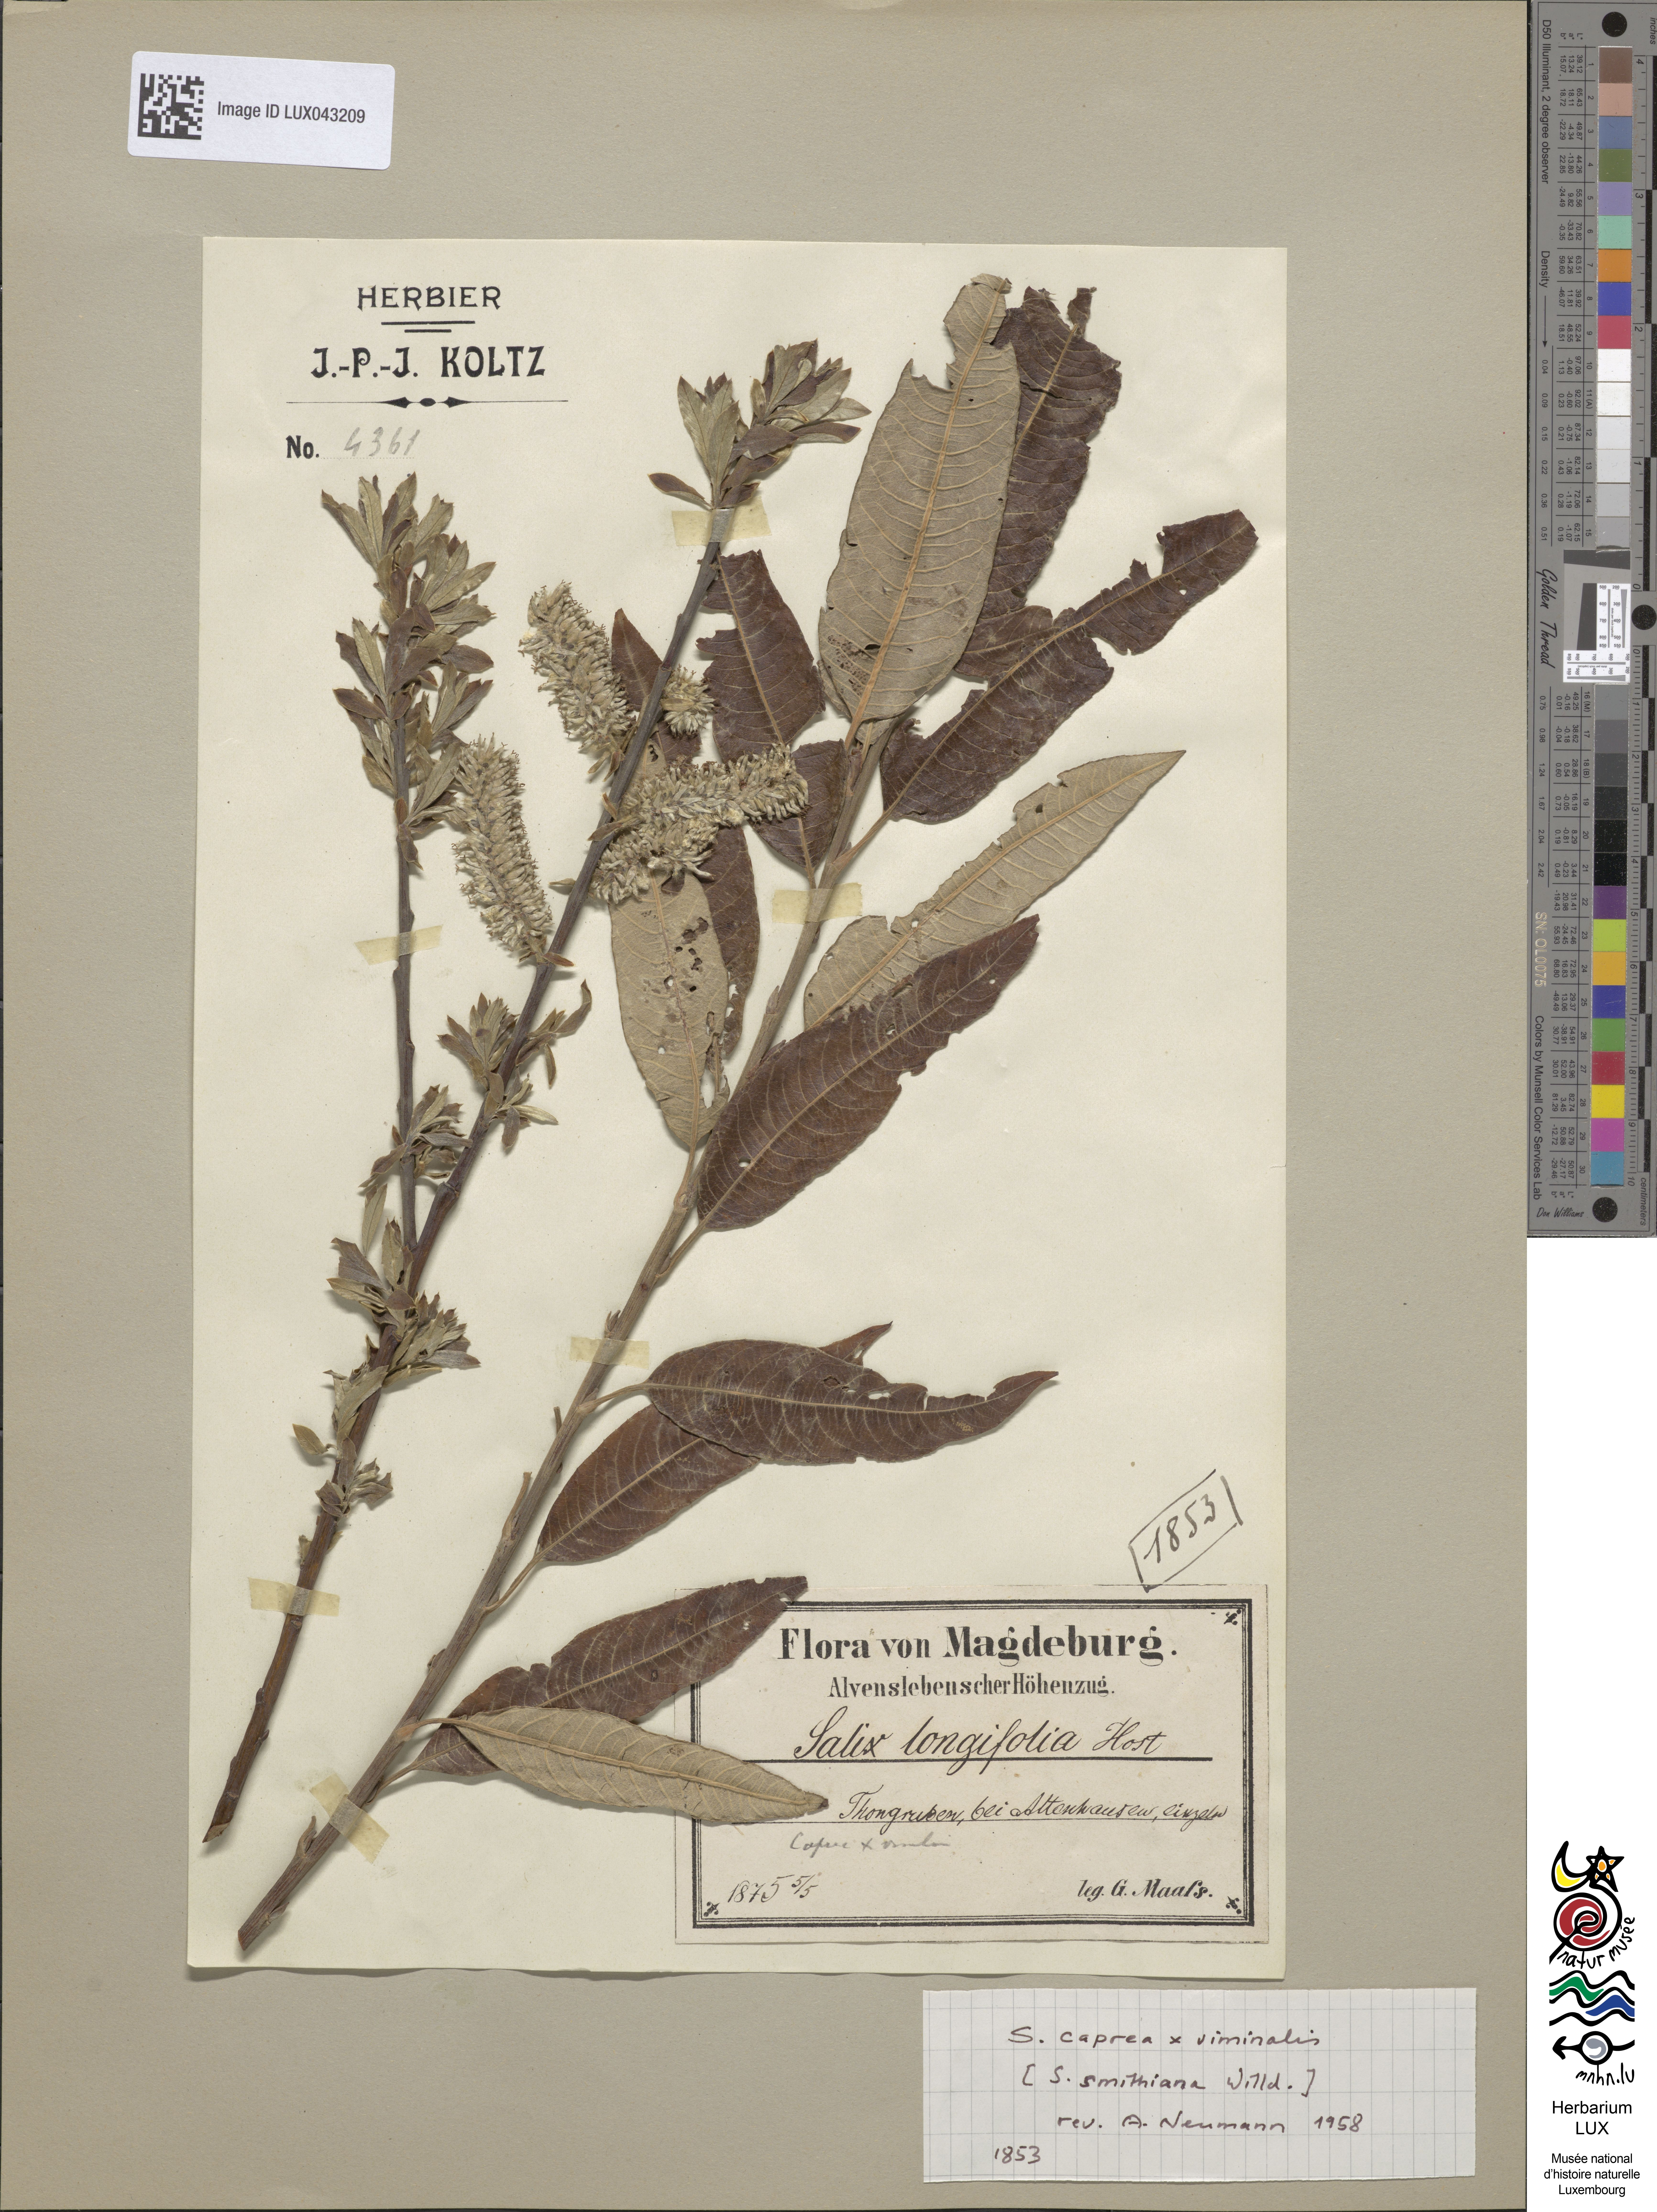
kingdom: Plantae
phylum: Tracheophyta
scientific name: Tracheophyta
